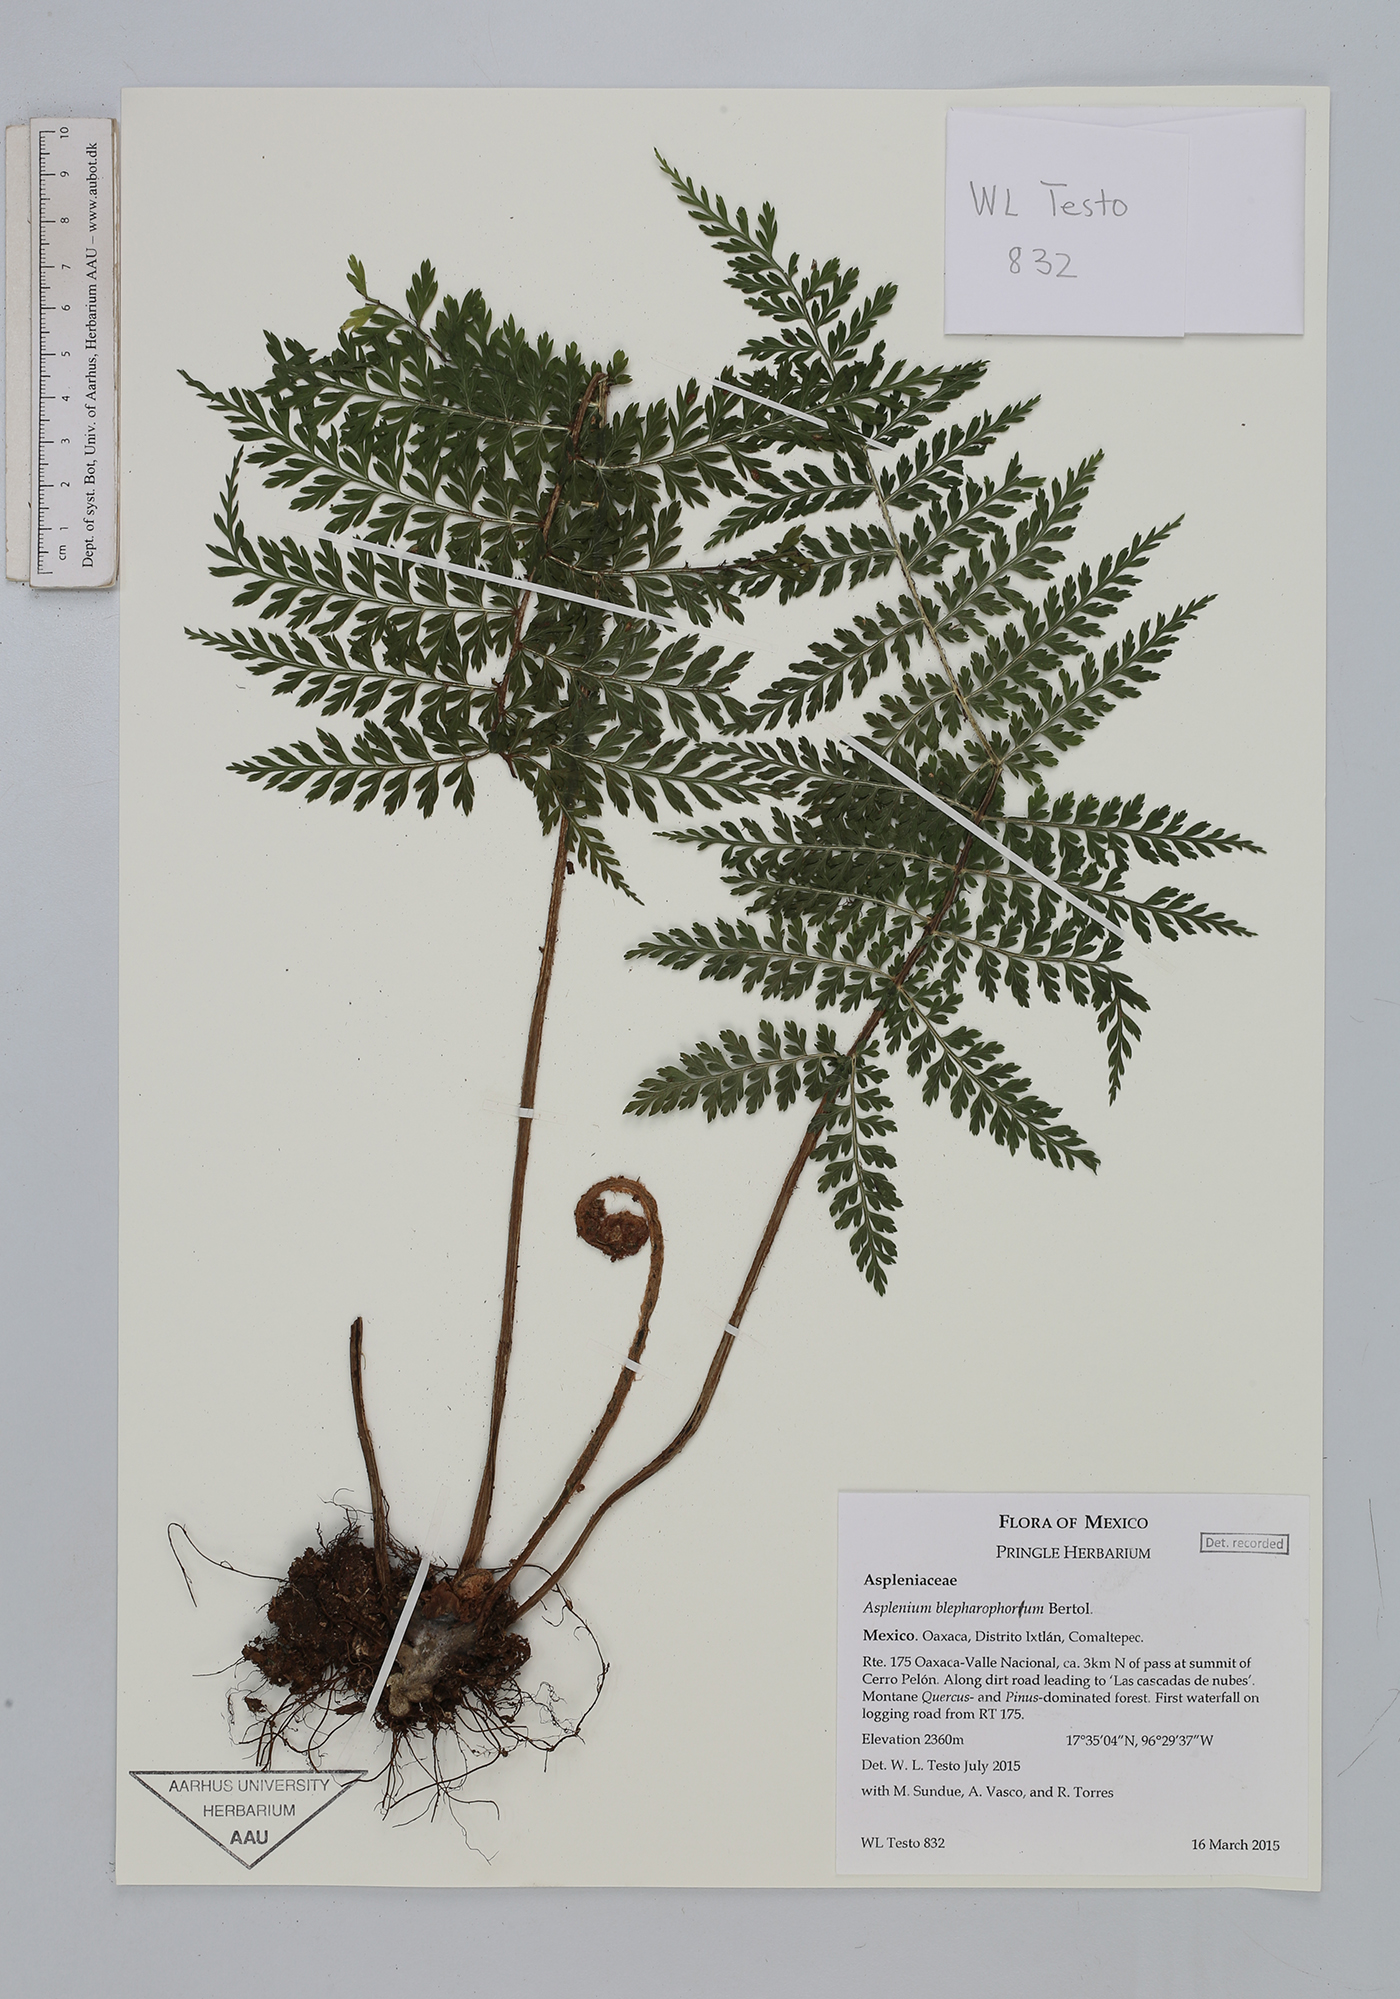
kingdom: Plantae
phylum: Tracheophyta
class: Polypodiopsida
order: Polypodiales
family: Aspleniaceae
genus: Asplenium
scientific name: Asplenium blepharophorum
